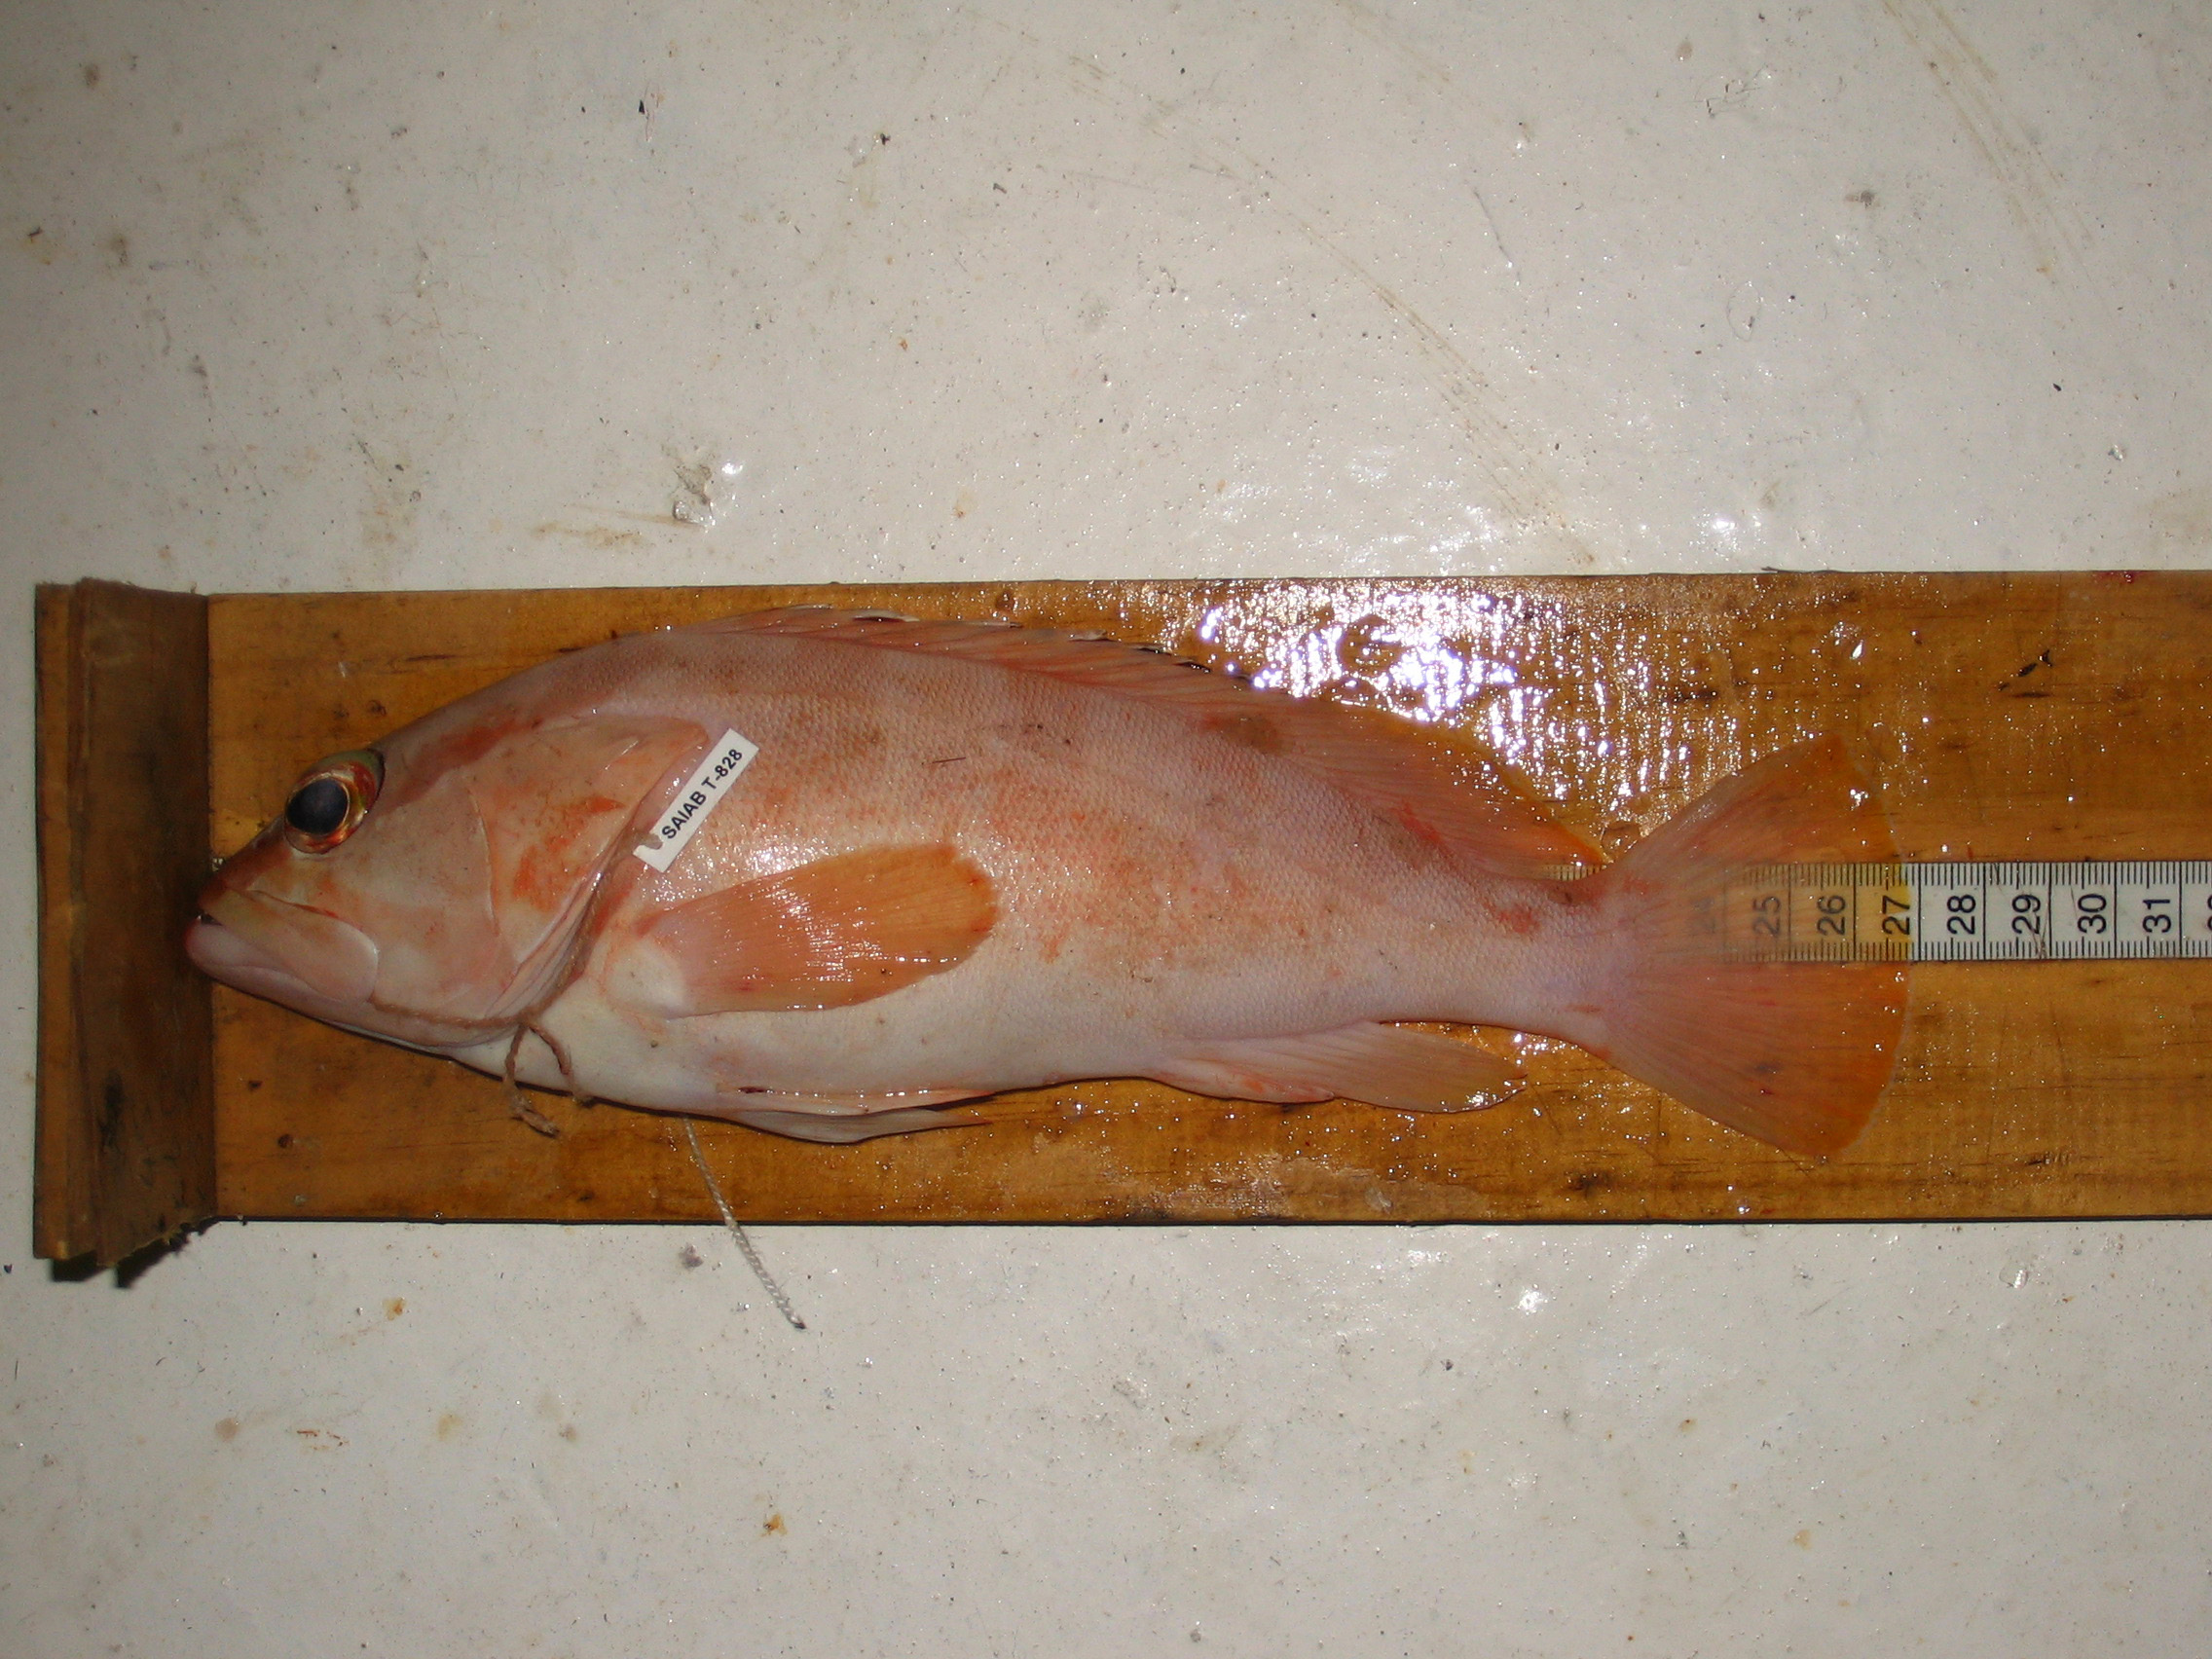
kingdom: Animalia
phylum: Chordata
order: Perciformes
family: Serranidae
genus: Epinephelus
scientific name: Epinephelus fasciatus
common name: Blacktip grouper
